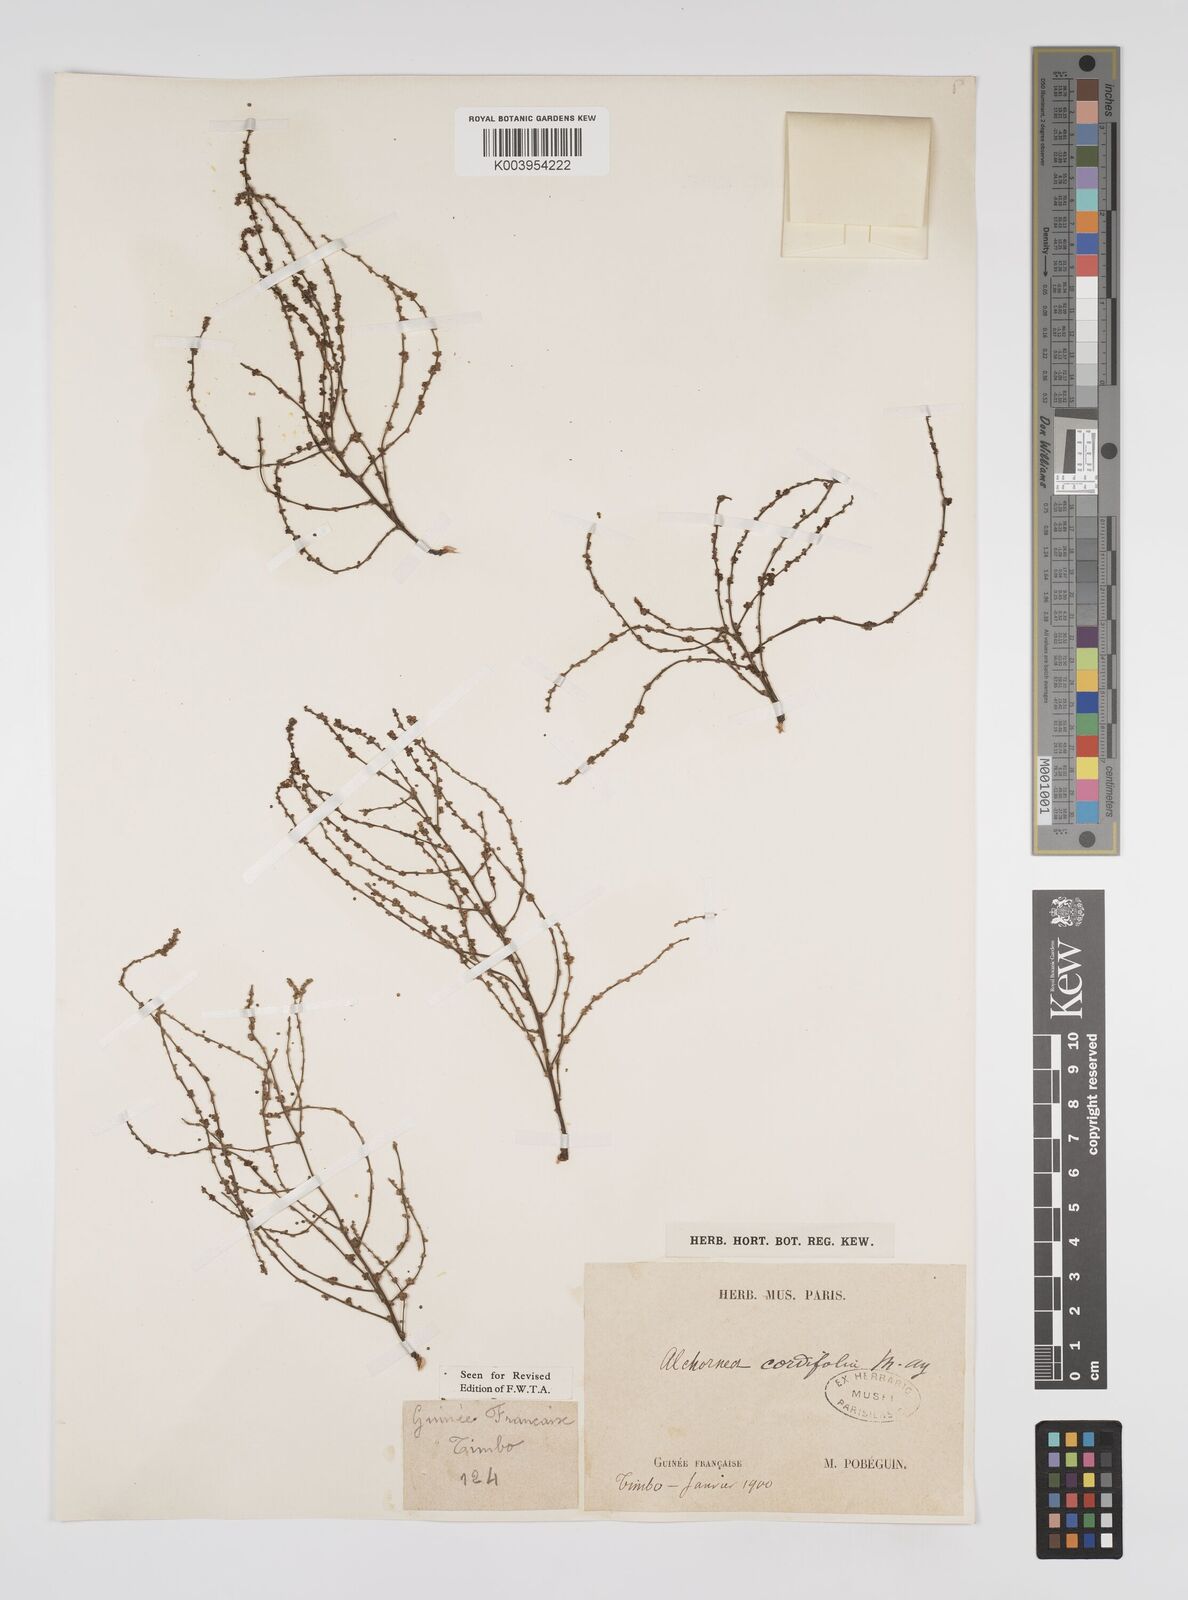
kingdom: Plantae
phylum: Tracheophyta
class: Magnoliopsida
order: Malpighiales
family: Euphorbiaceae
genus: Alchornea
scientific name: Alchornea cordifolia
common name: Christmasbush
